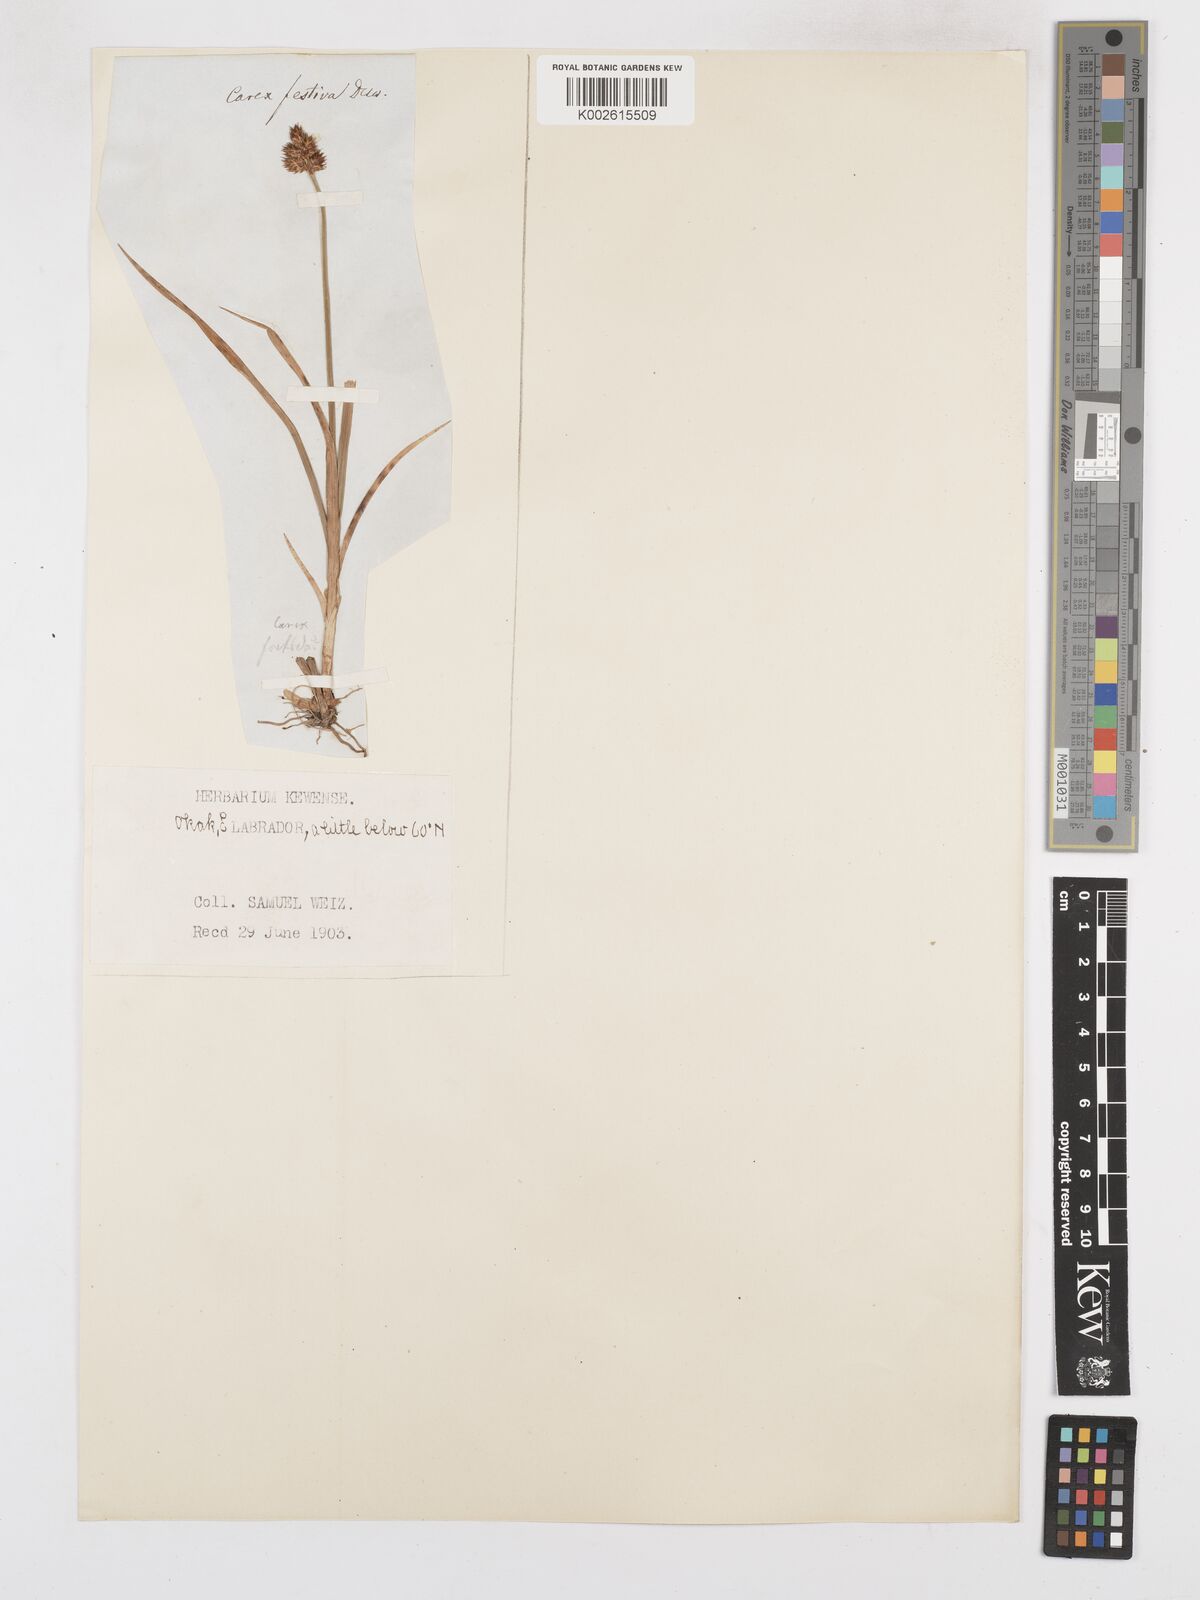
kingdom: Plantae
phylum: Tracheophyta
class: Liliopsida
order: Poales
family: Cyperaceae
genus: Carex
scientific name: Carex macloviana
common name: Falkland island sedge
